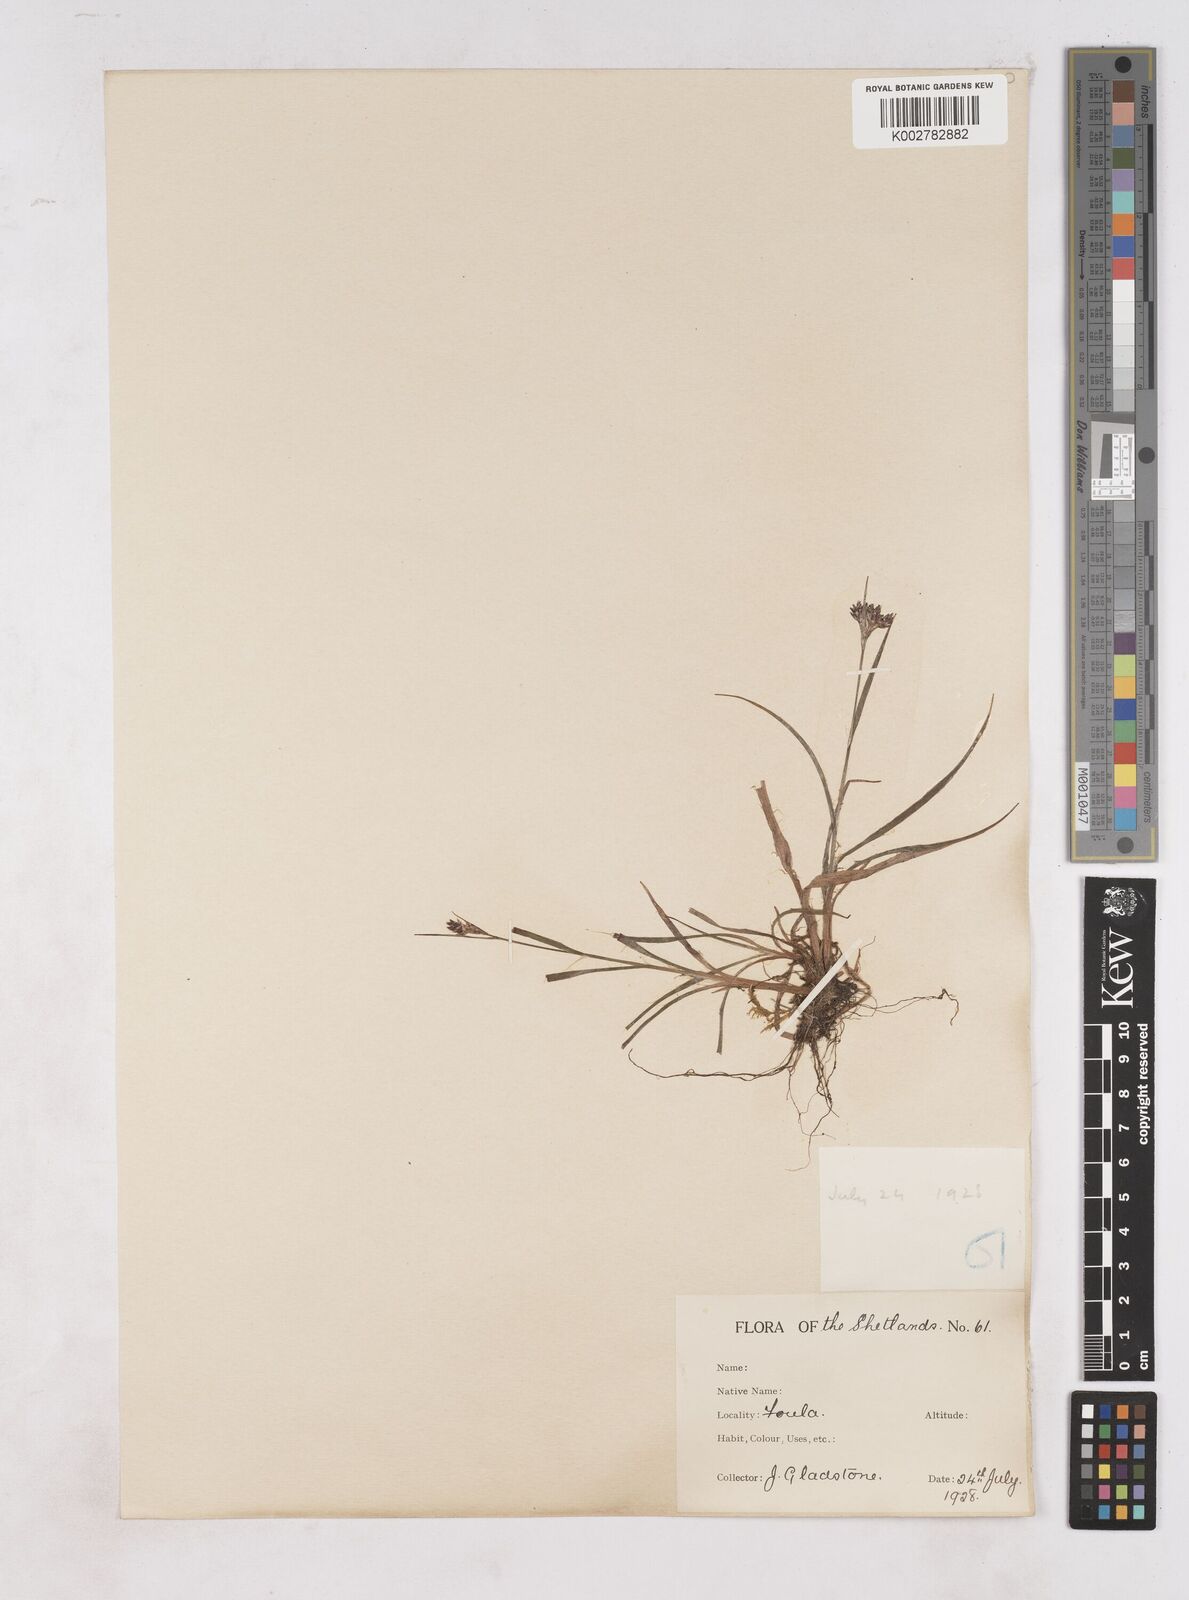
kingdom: Plantae
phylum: Tracheophyta
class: Liliopsida
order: Poales
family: Juncaceae
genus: Luzula
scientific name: Luzula campestris
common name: Field wood-rush
